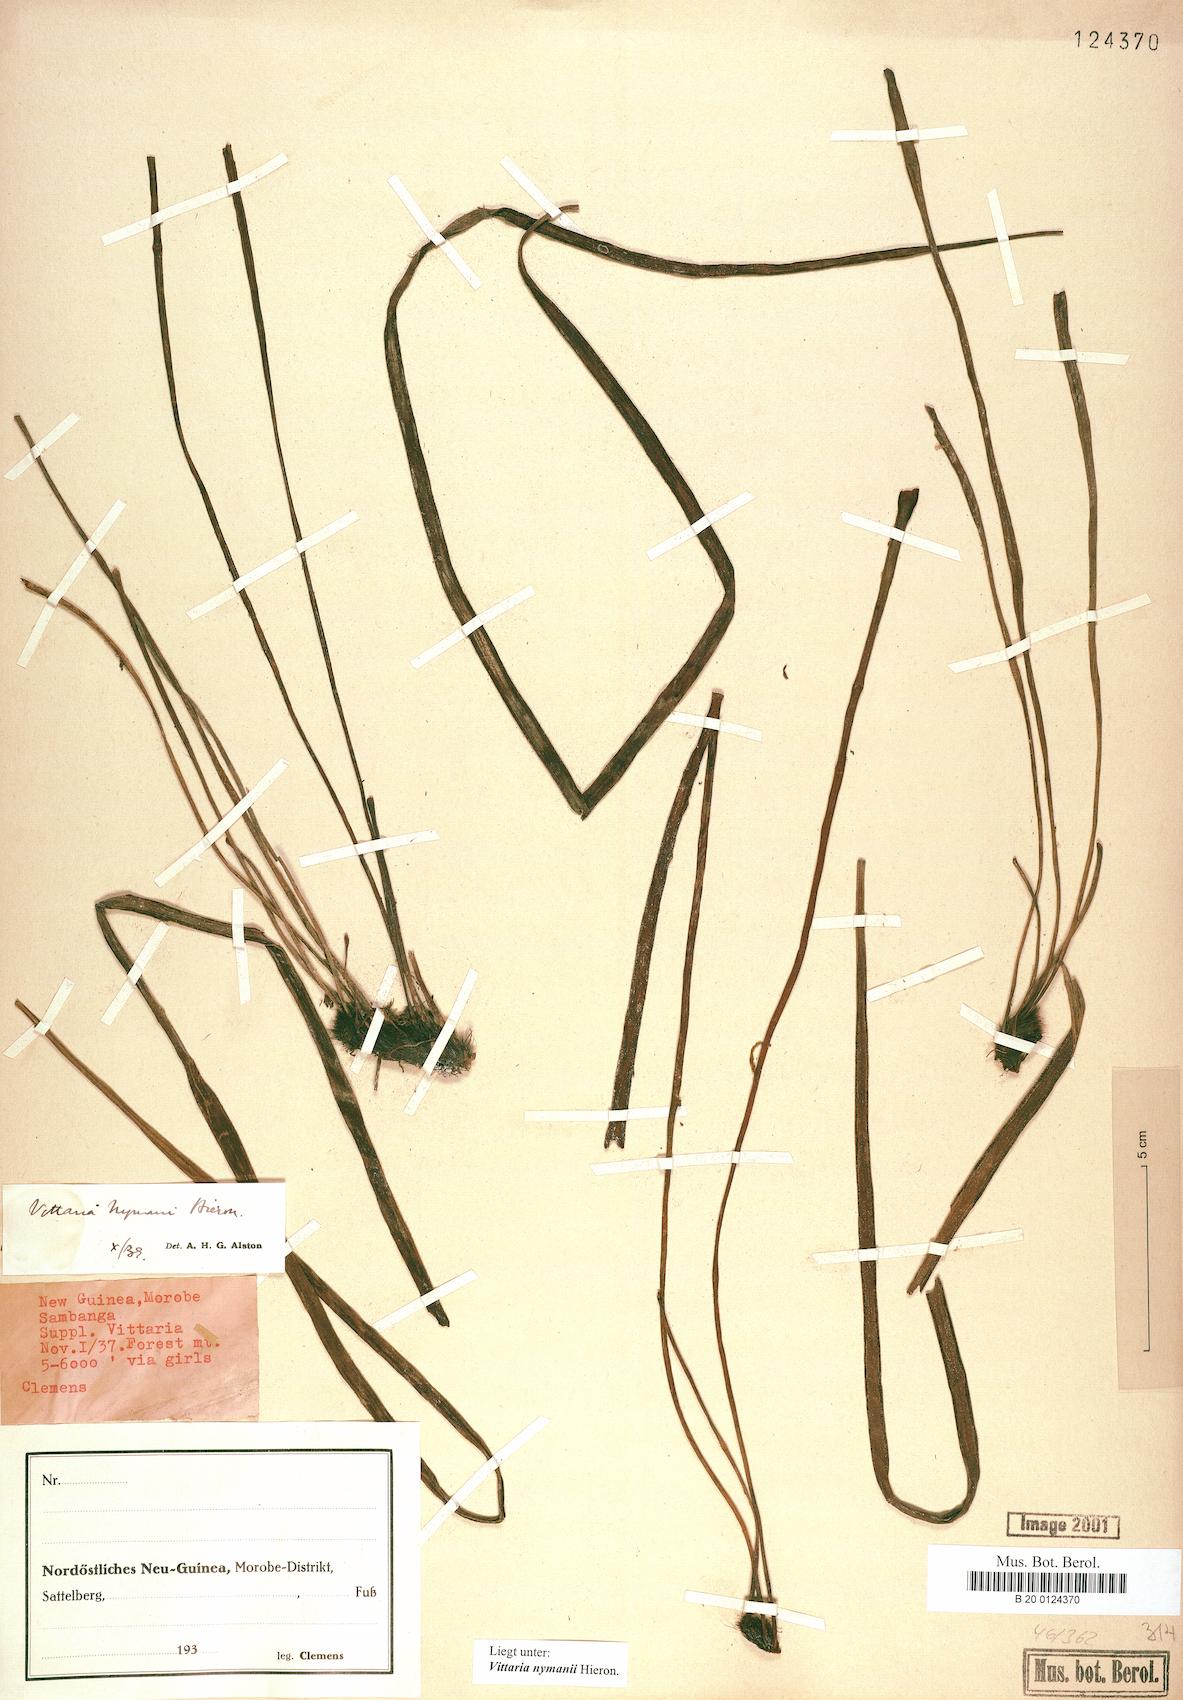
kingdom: Plantae
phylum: Tracheophyta
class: Polypodiopsida
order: Polypodiales
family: Pteridaceae
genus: Haplopteris
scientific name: Haplopteris elongata
